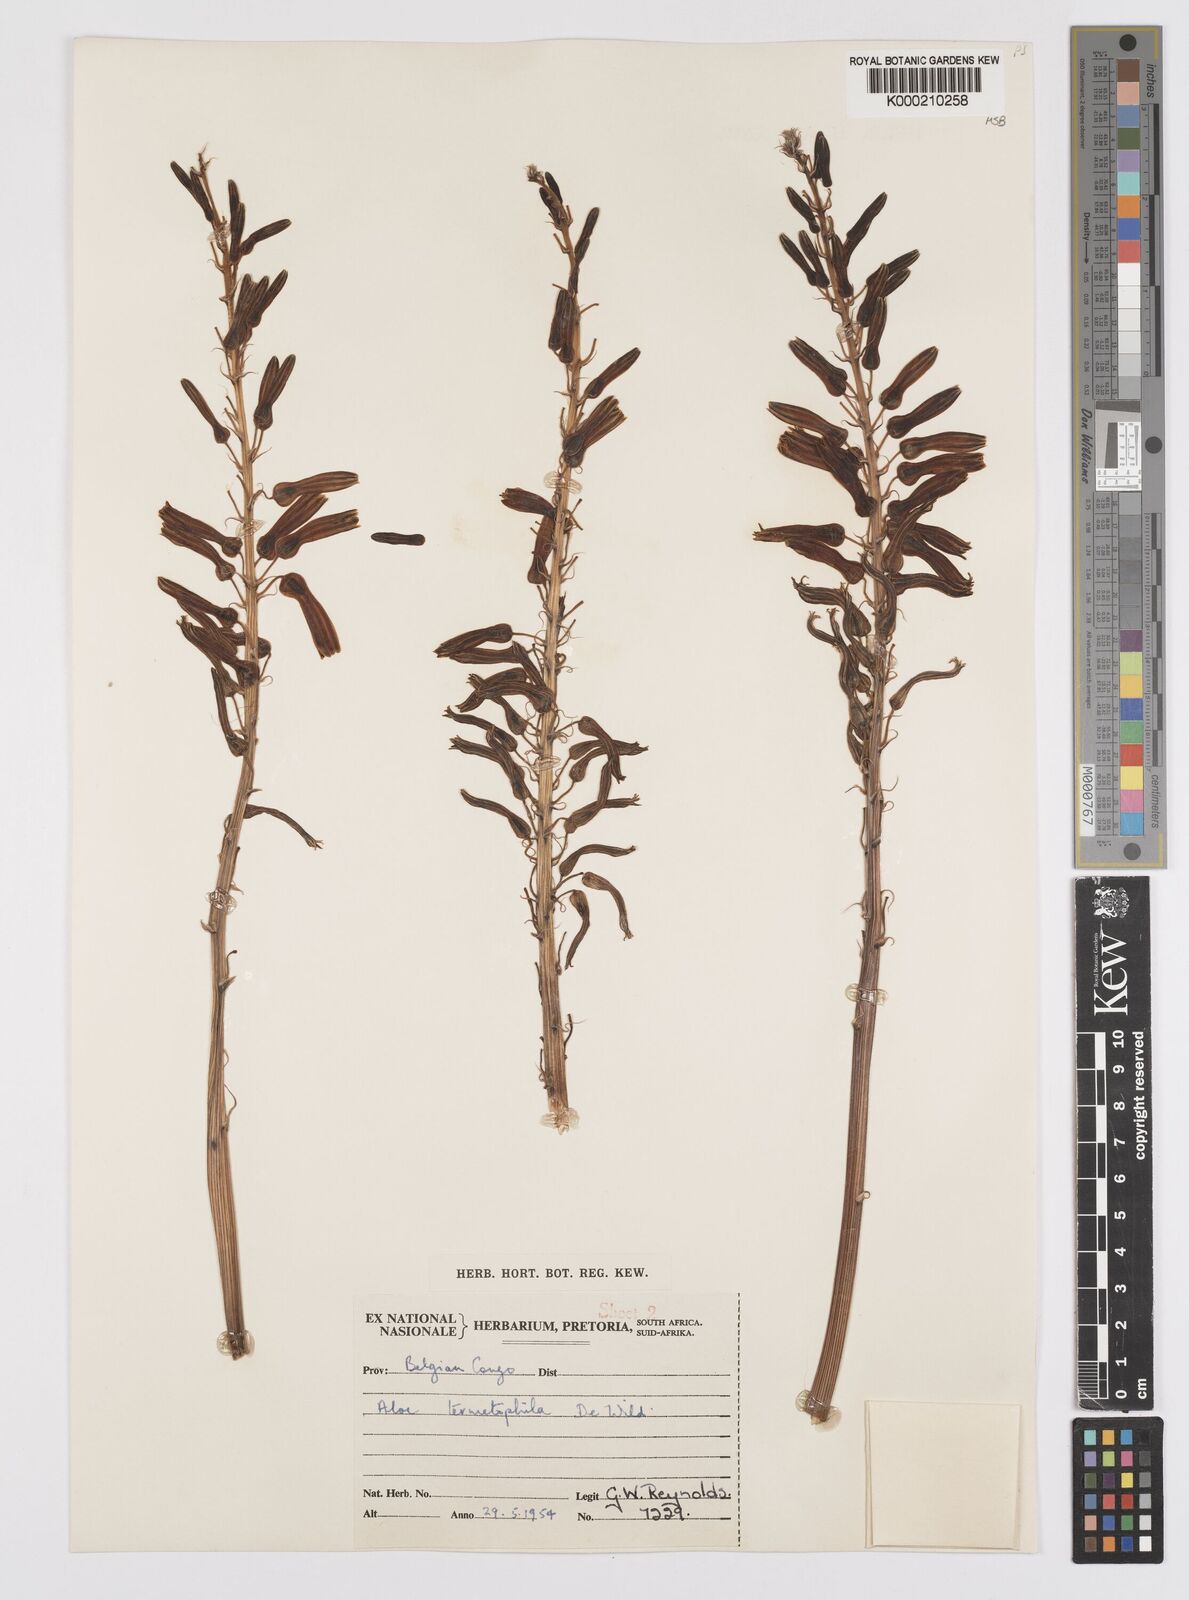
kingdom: Plantae
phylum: Tracheophyta
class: Liliopsida
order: Asparagales
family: Asphodelaceae
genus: Aloe
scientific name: Aloe greatheadii
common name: Greathead's aloe
